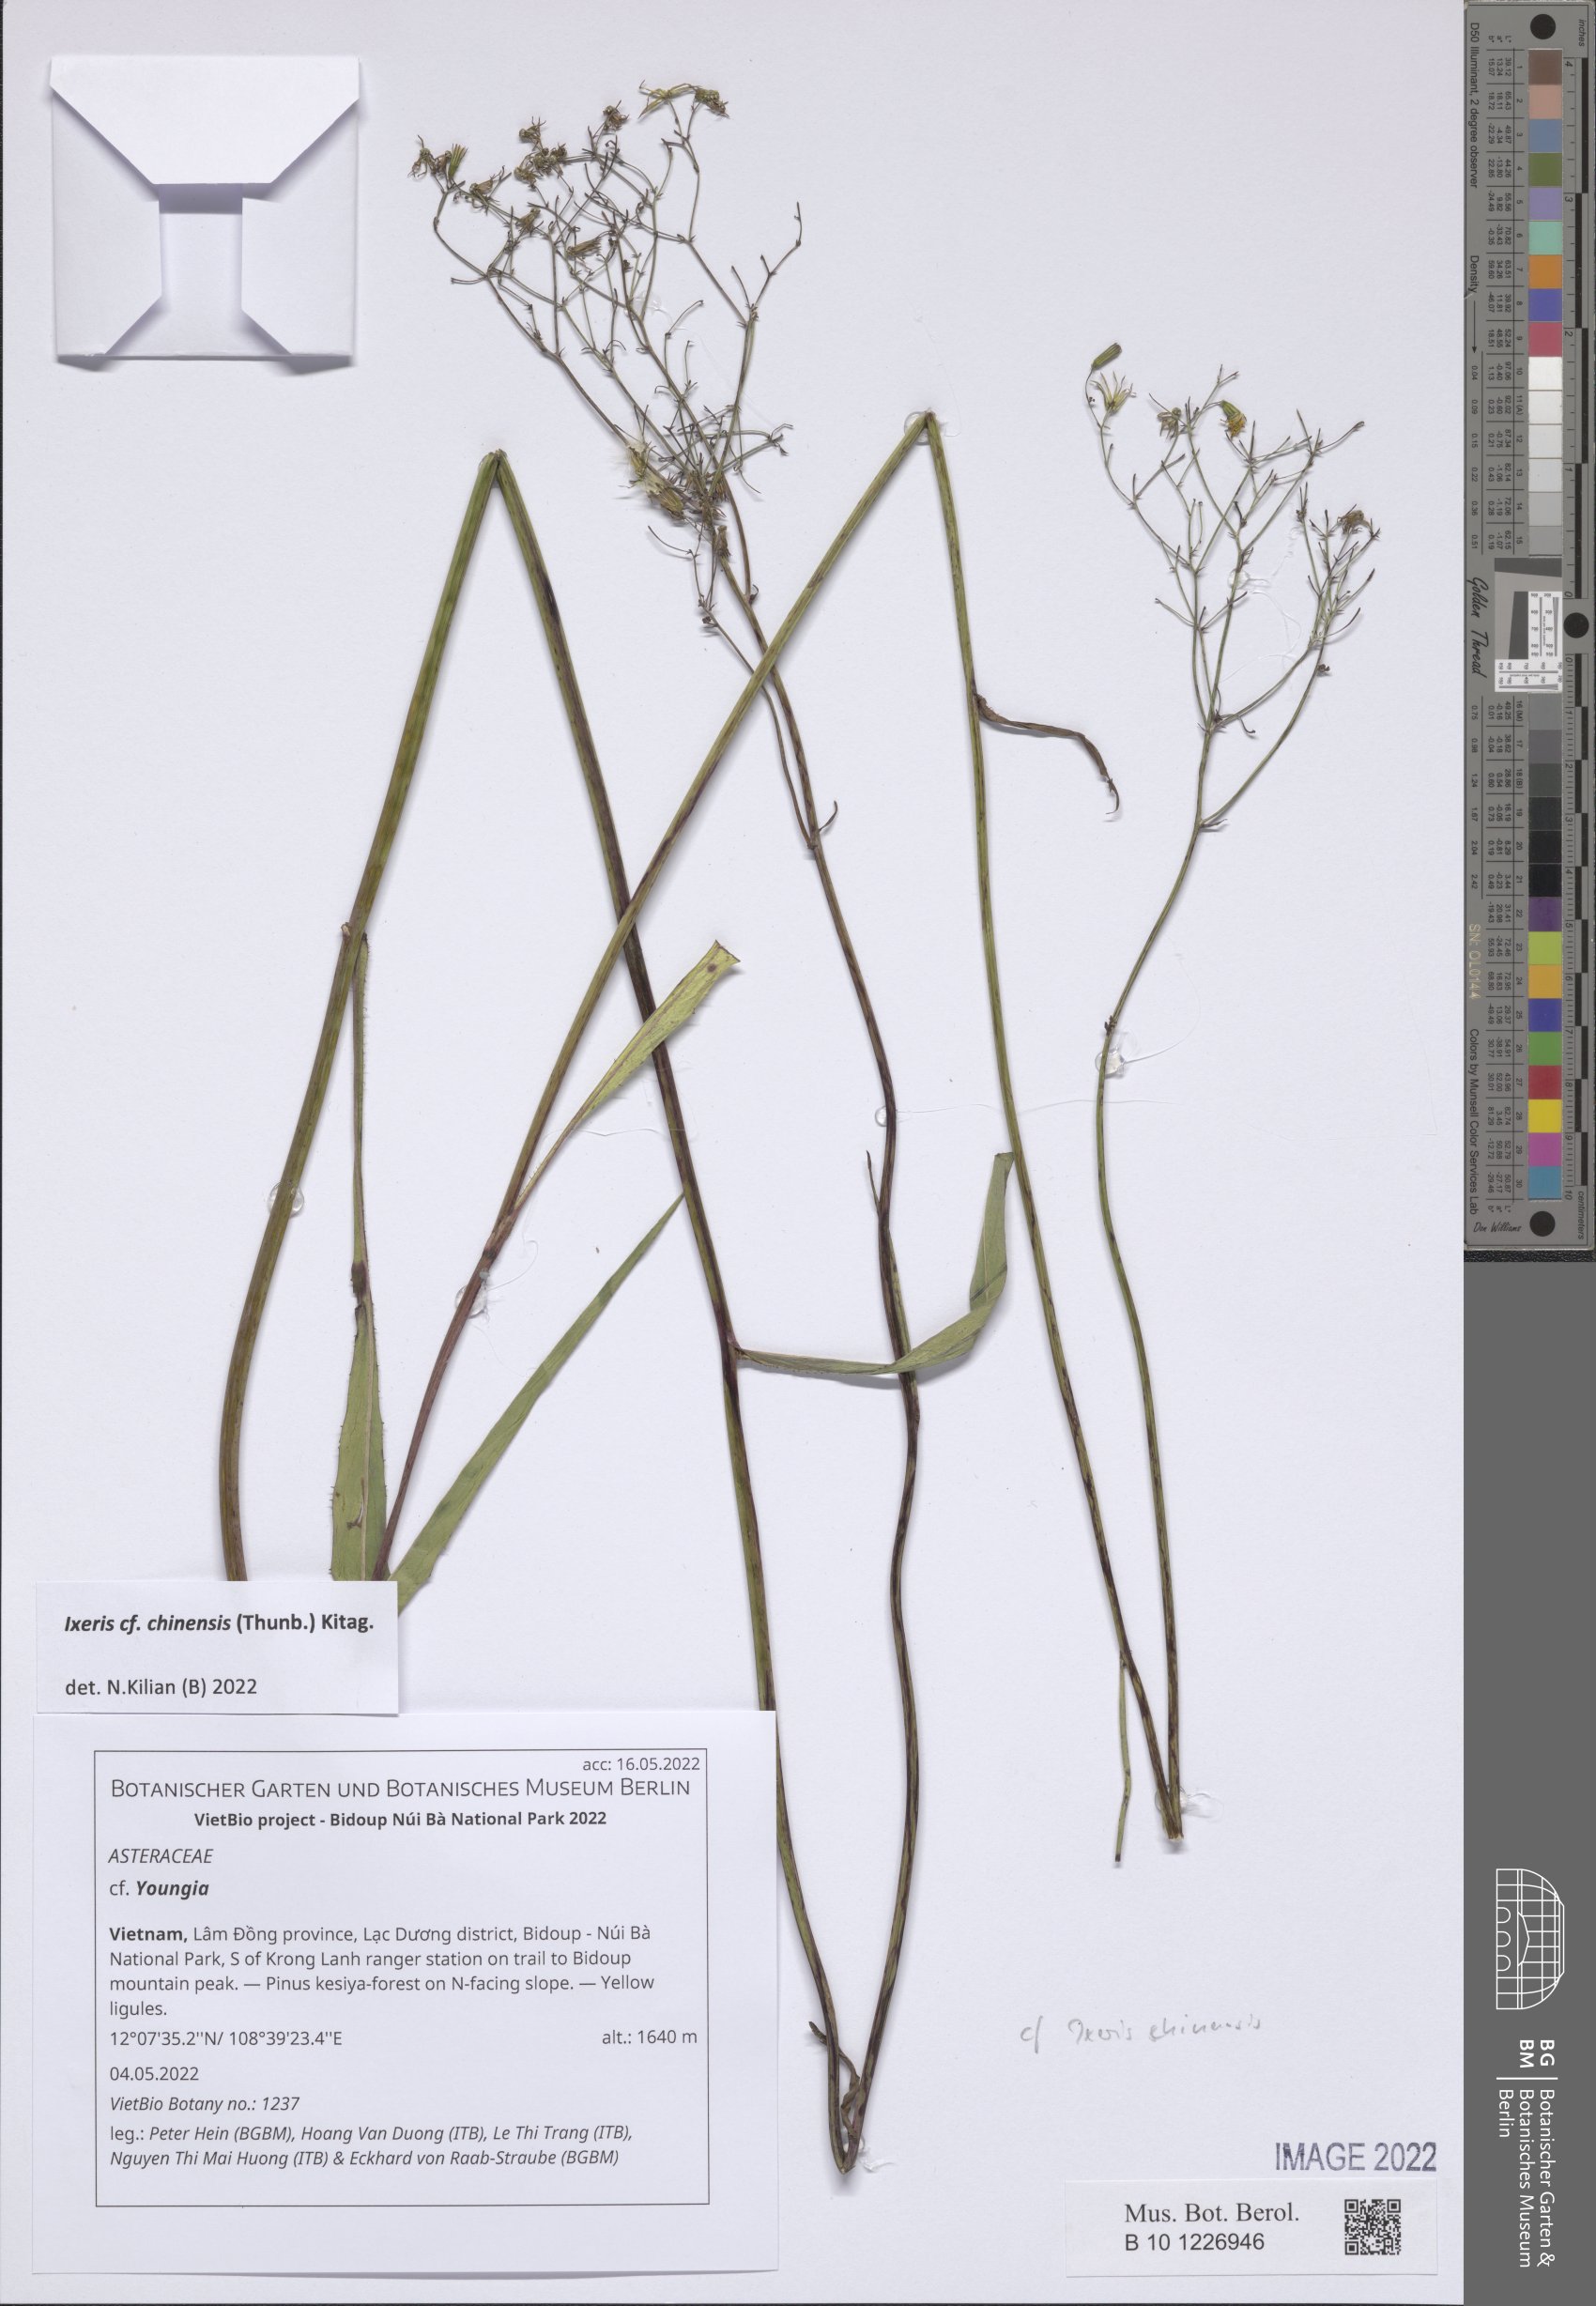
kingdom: Plantae
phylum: Tracheophyta
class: Magnoliopsida
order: Asterales
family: Asteraceae
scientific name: Asteraceae
